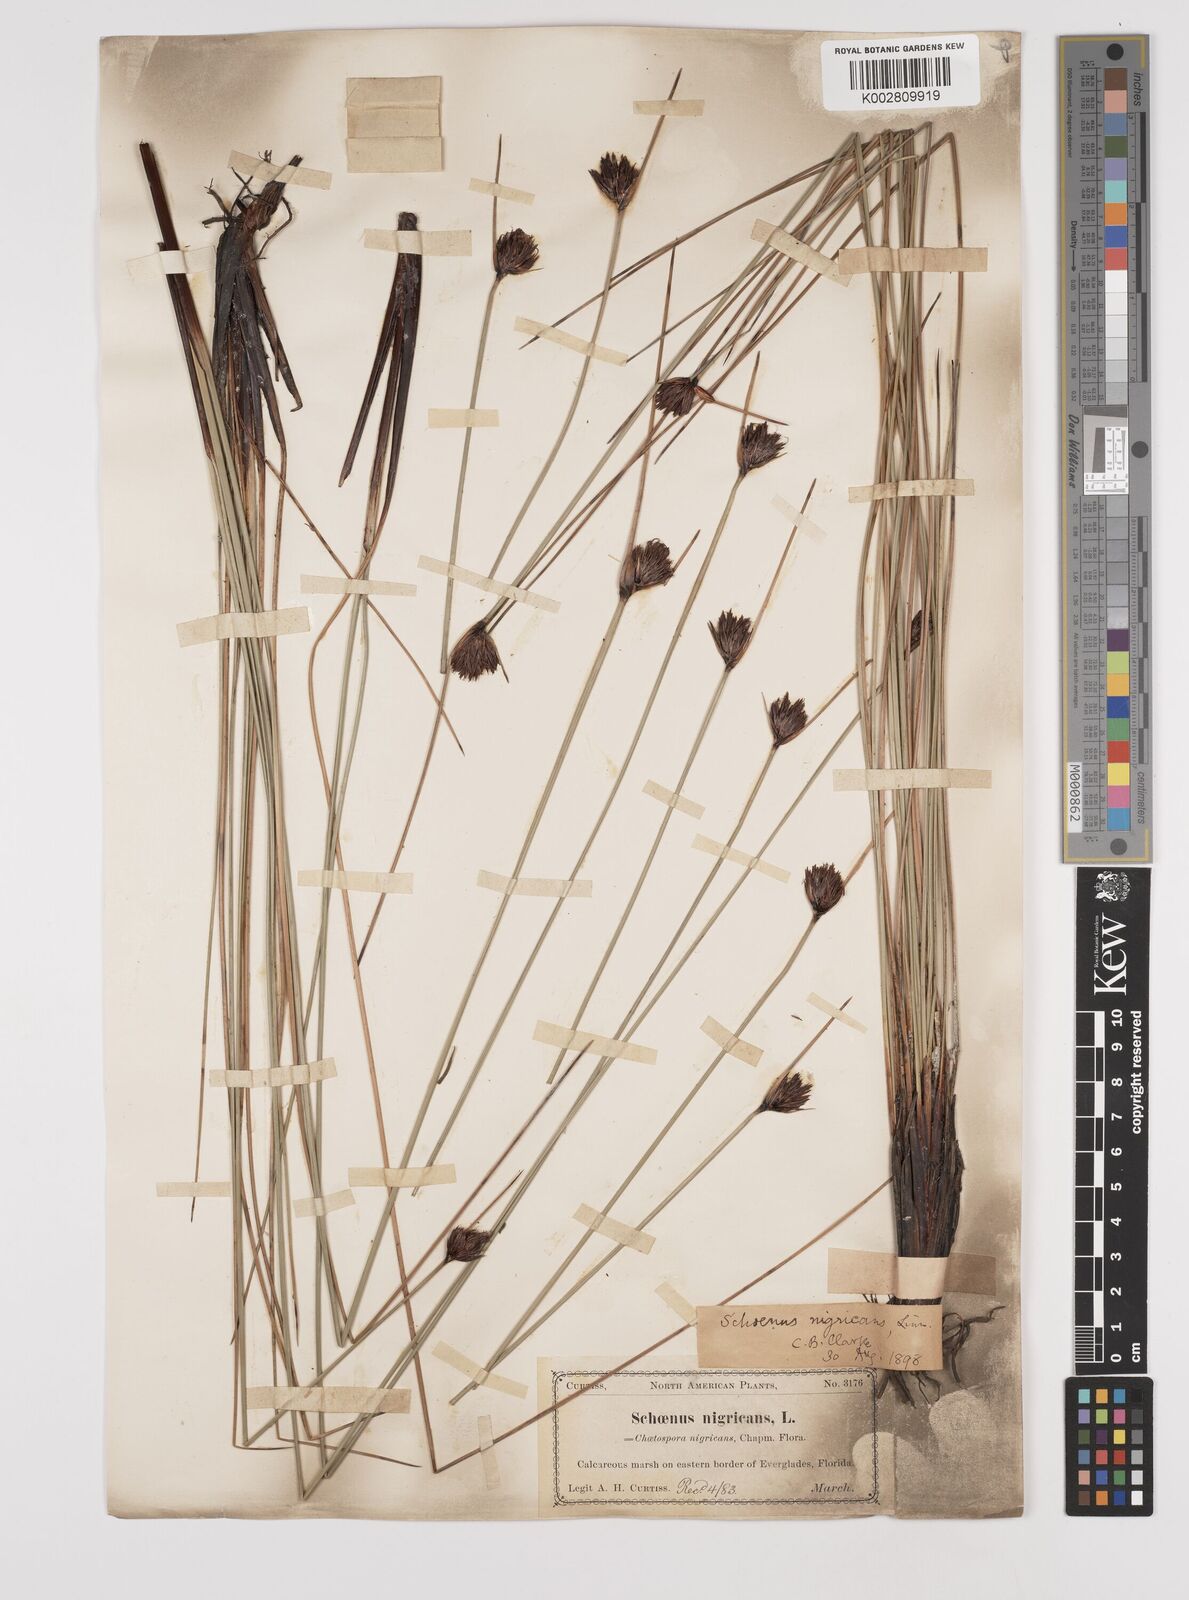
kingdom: Plantae
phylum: Tracheophyta
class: Liliopsida
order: Poales
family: Cyperaceae
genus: Schoenus
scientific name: Schoenus nigricans
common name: Black bog-rush
